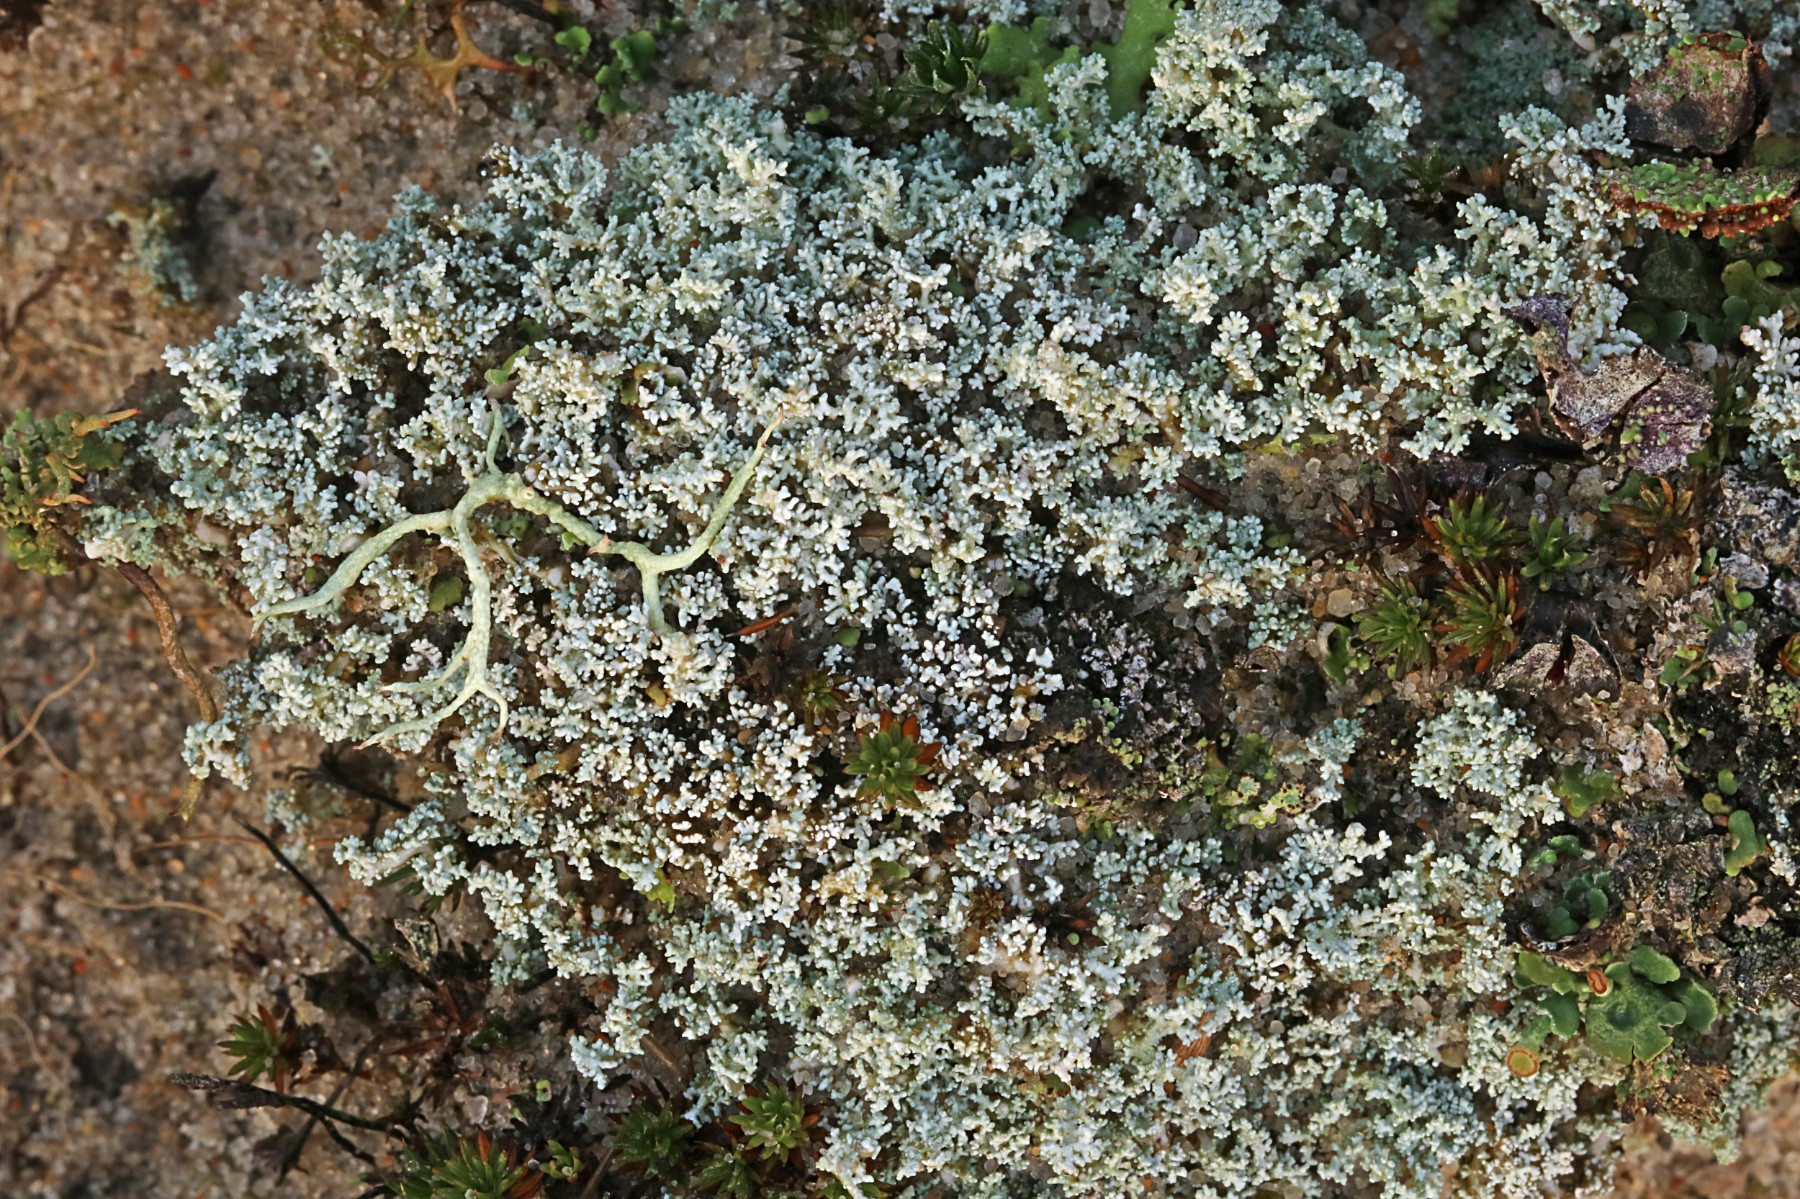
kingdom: Fungi
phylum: Ascomycota
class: Lecanoromycetes
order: Lecanorales
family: Stereocaulaceae
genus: Stereocaulon
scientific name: Stereocaulon condensatum
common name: lav korallav
